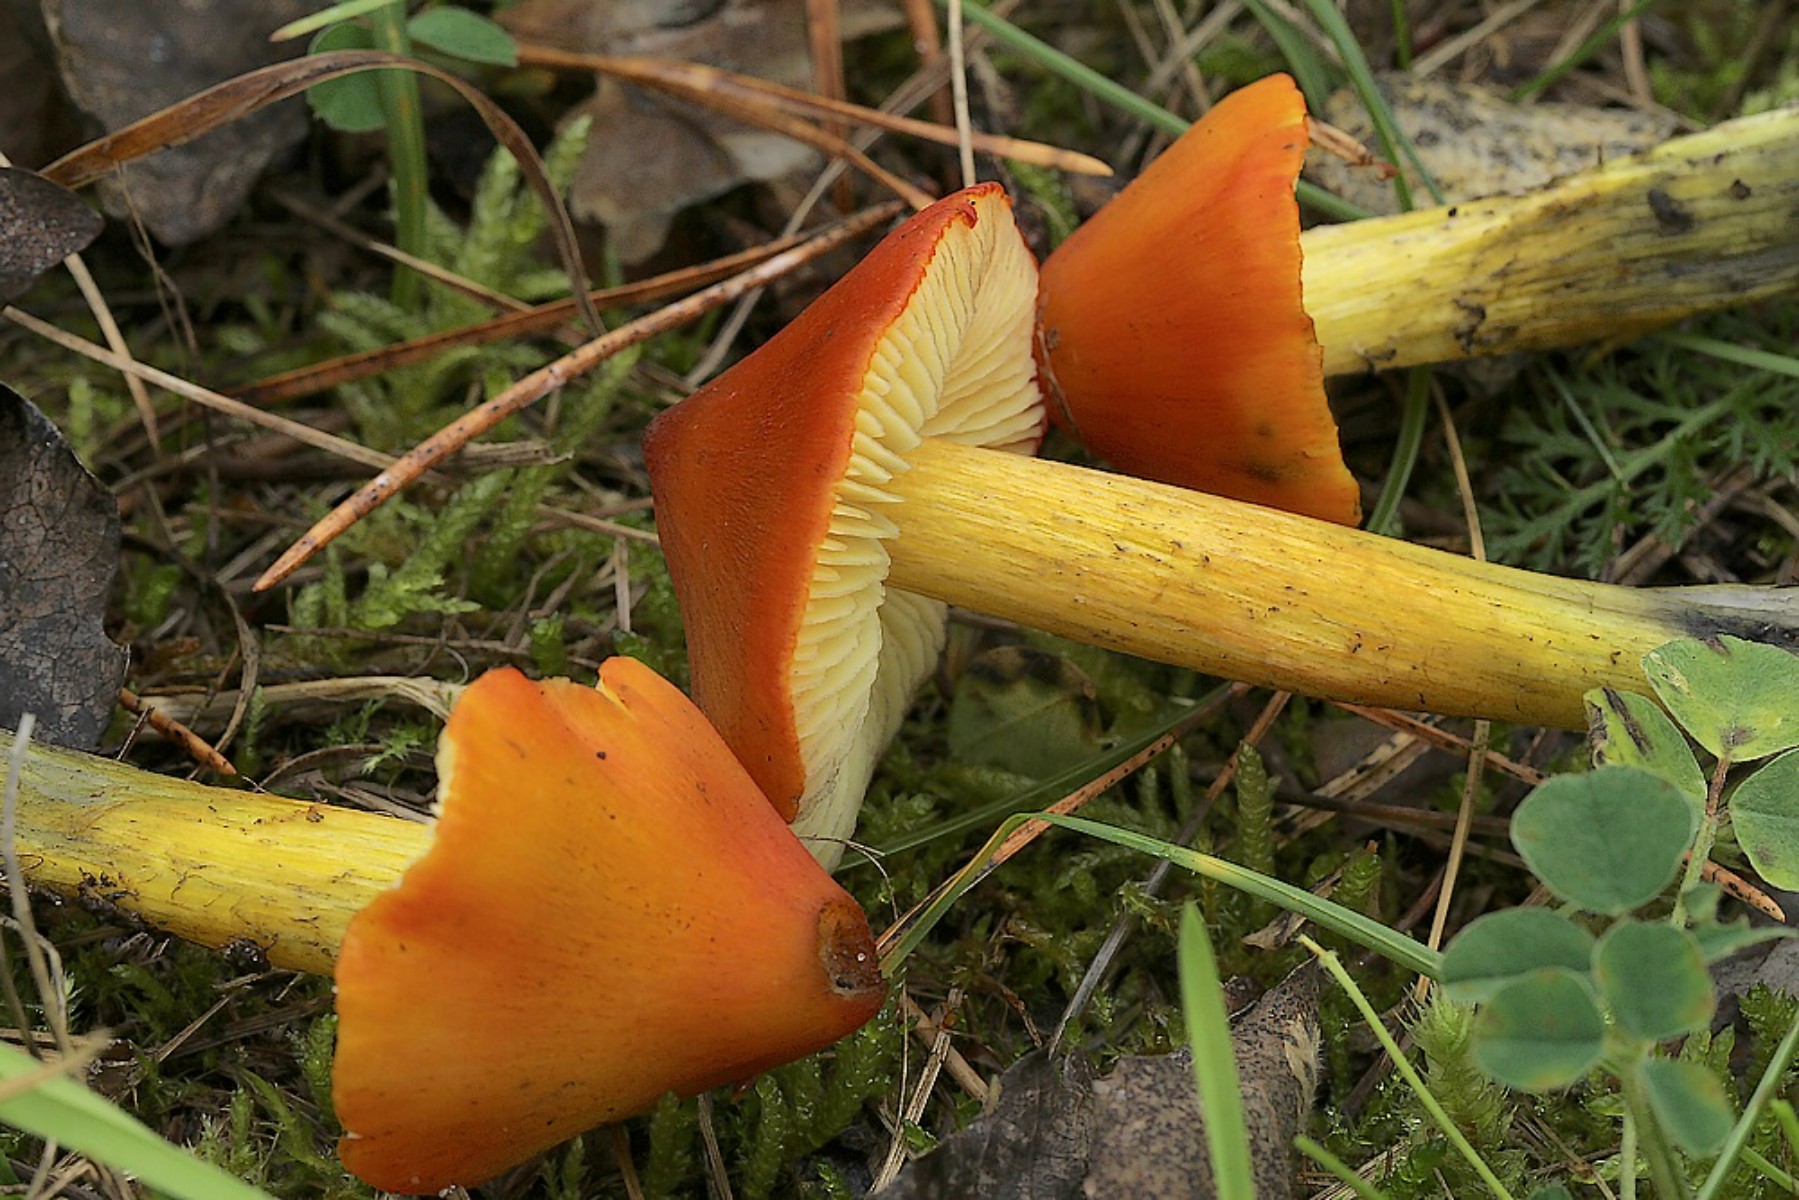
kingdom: Fungi
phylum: Basidiomycota
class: Agaricomycetes
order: Agaricales
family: Hygrophoraceae
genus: Hygrocybe
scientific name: Hygrocybe conica
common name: kegle-vokshat
